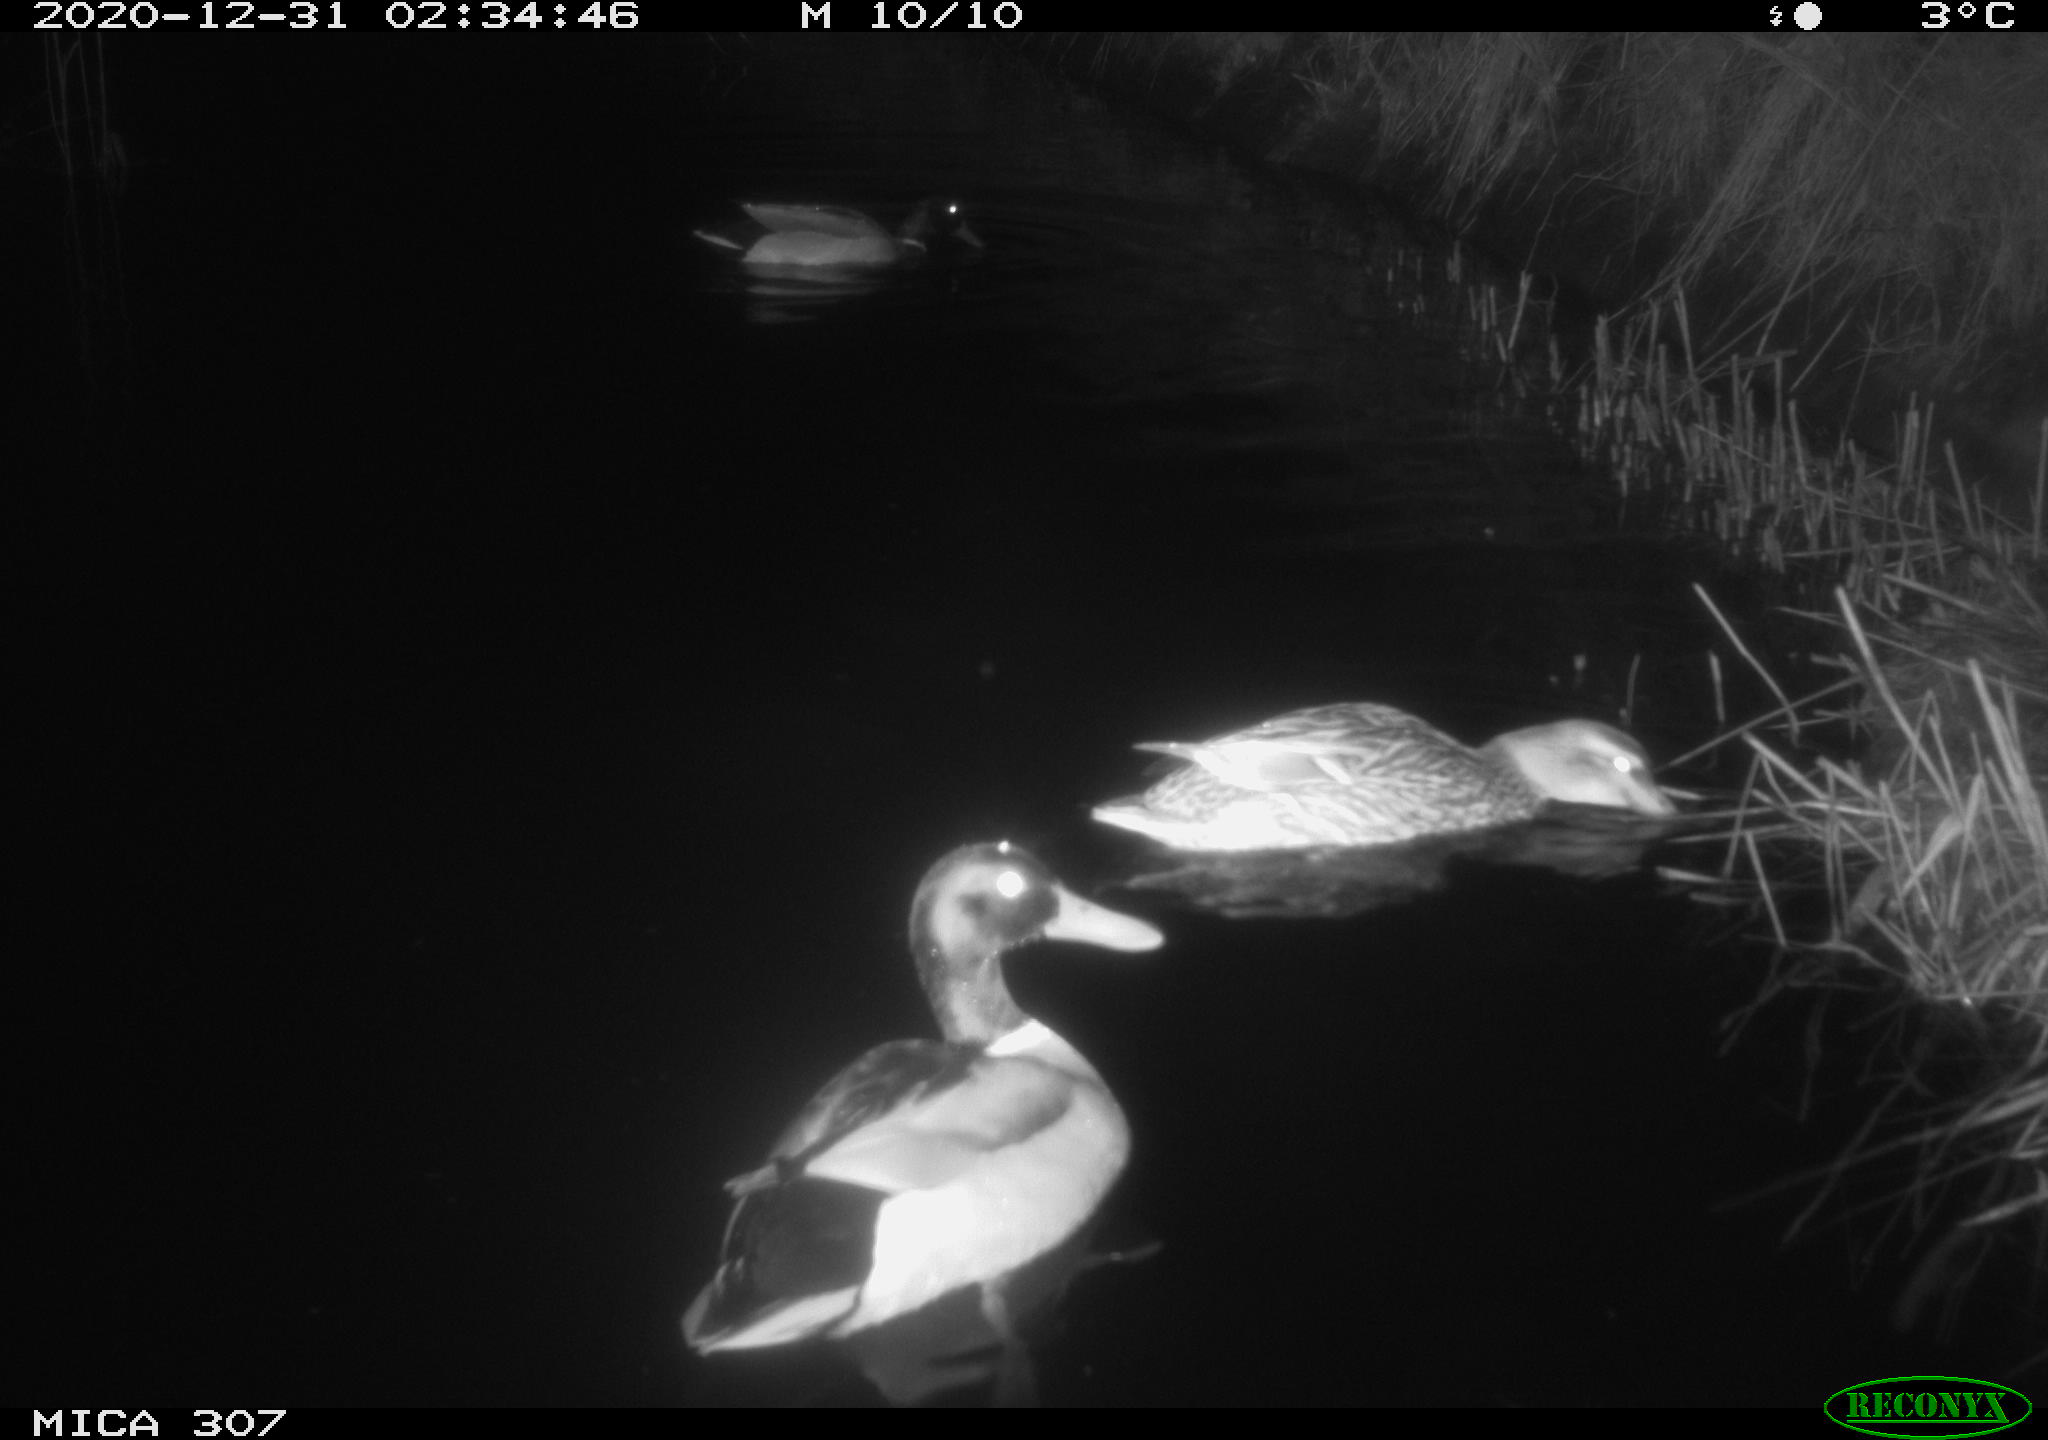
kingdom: Animalia
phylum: Chordata
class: Aves
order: Anseriformes
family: Anatidae
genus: Anas
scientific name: Anas platyrhynchos
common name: Mallard
